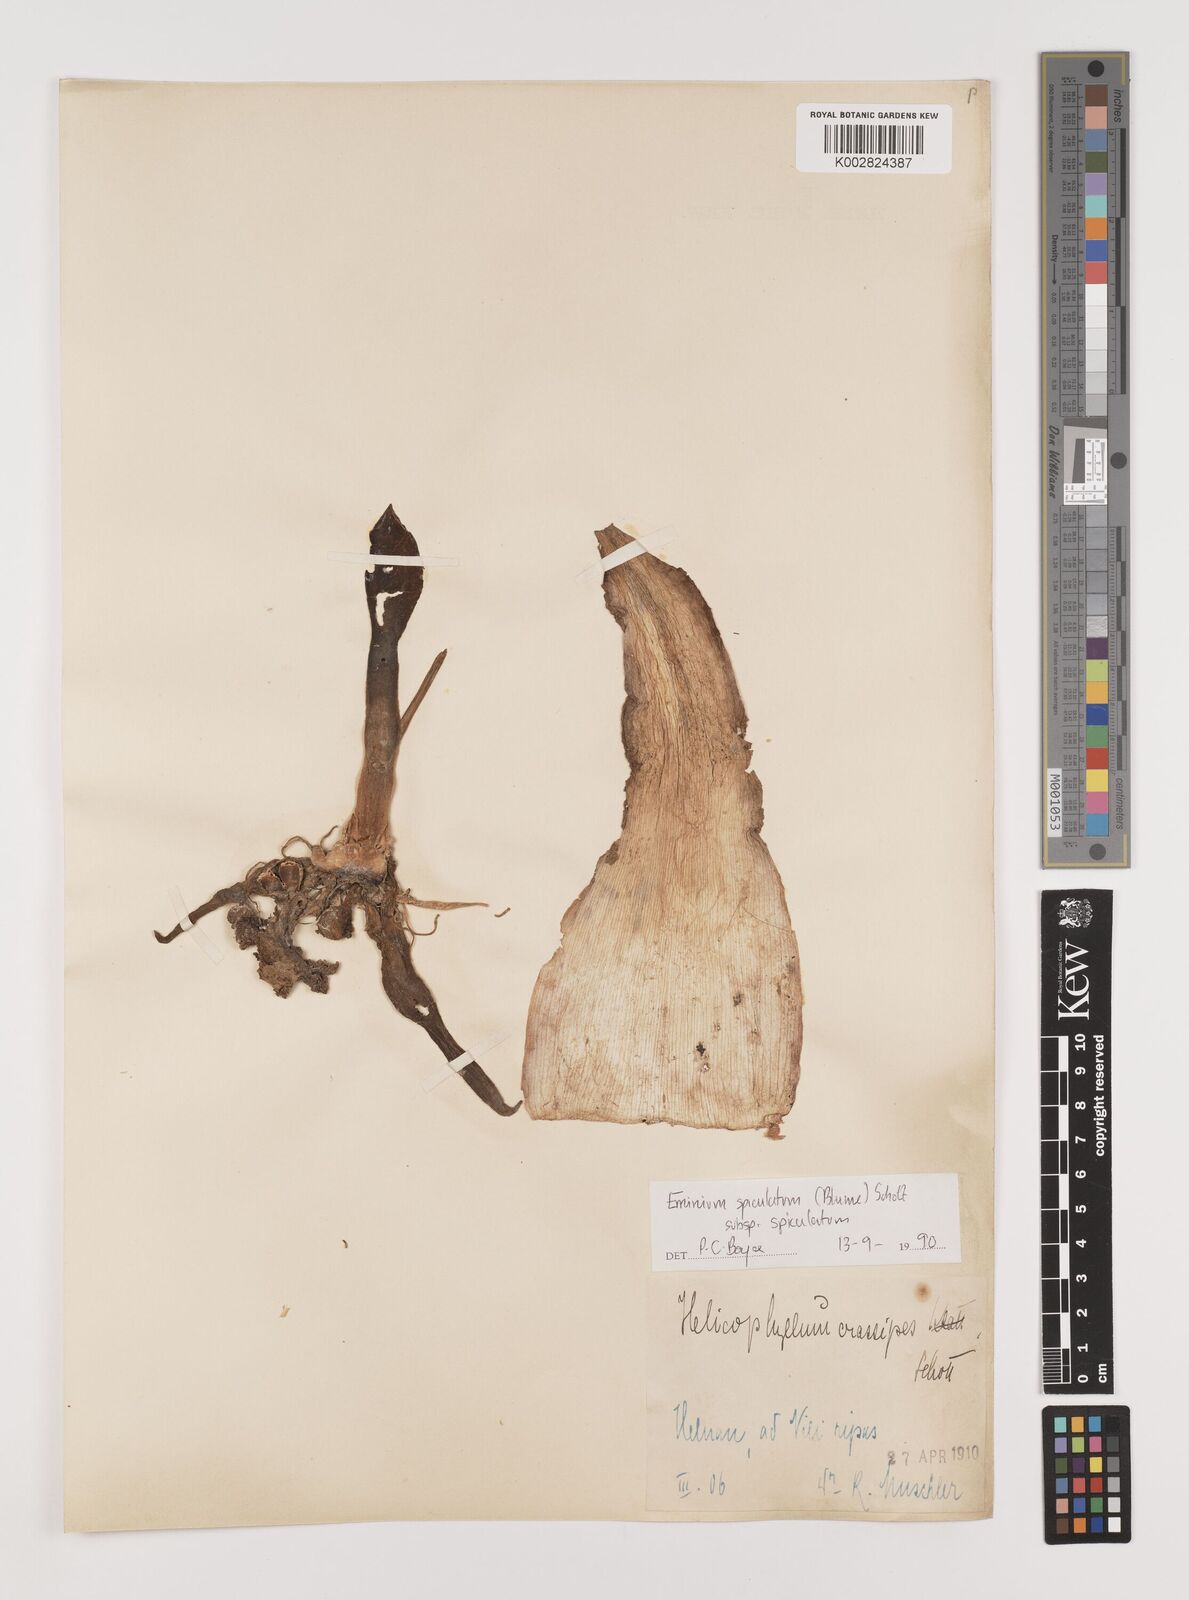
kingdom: Plantae
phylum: Tracheophyta
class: Liliopsida
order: Alismatales
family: Araceae
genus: Eminium
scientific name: Eminium spiculatum
